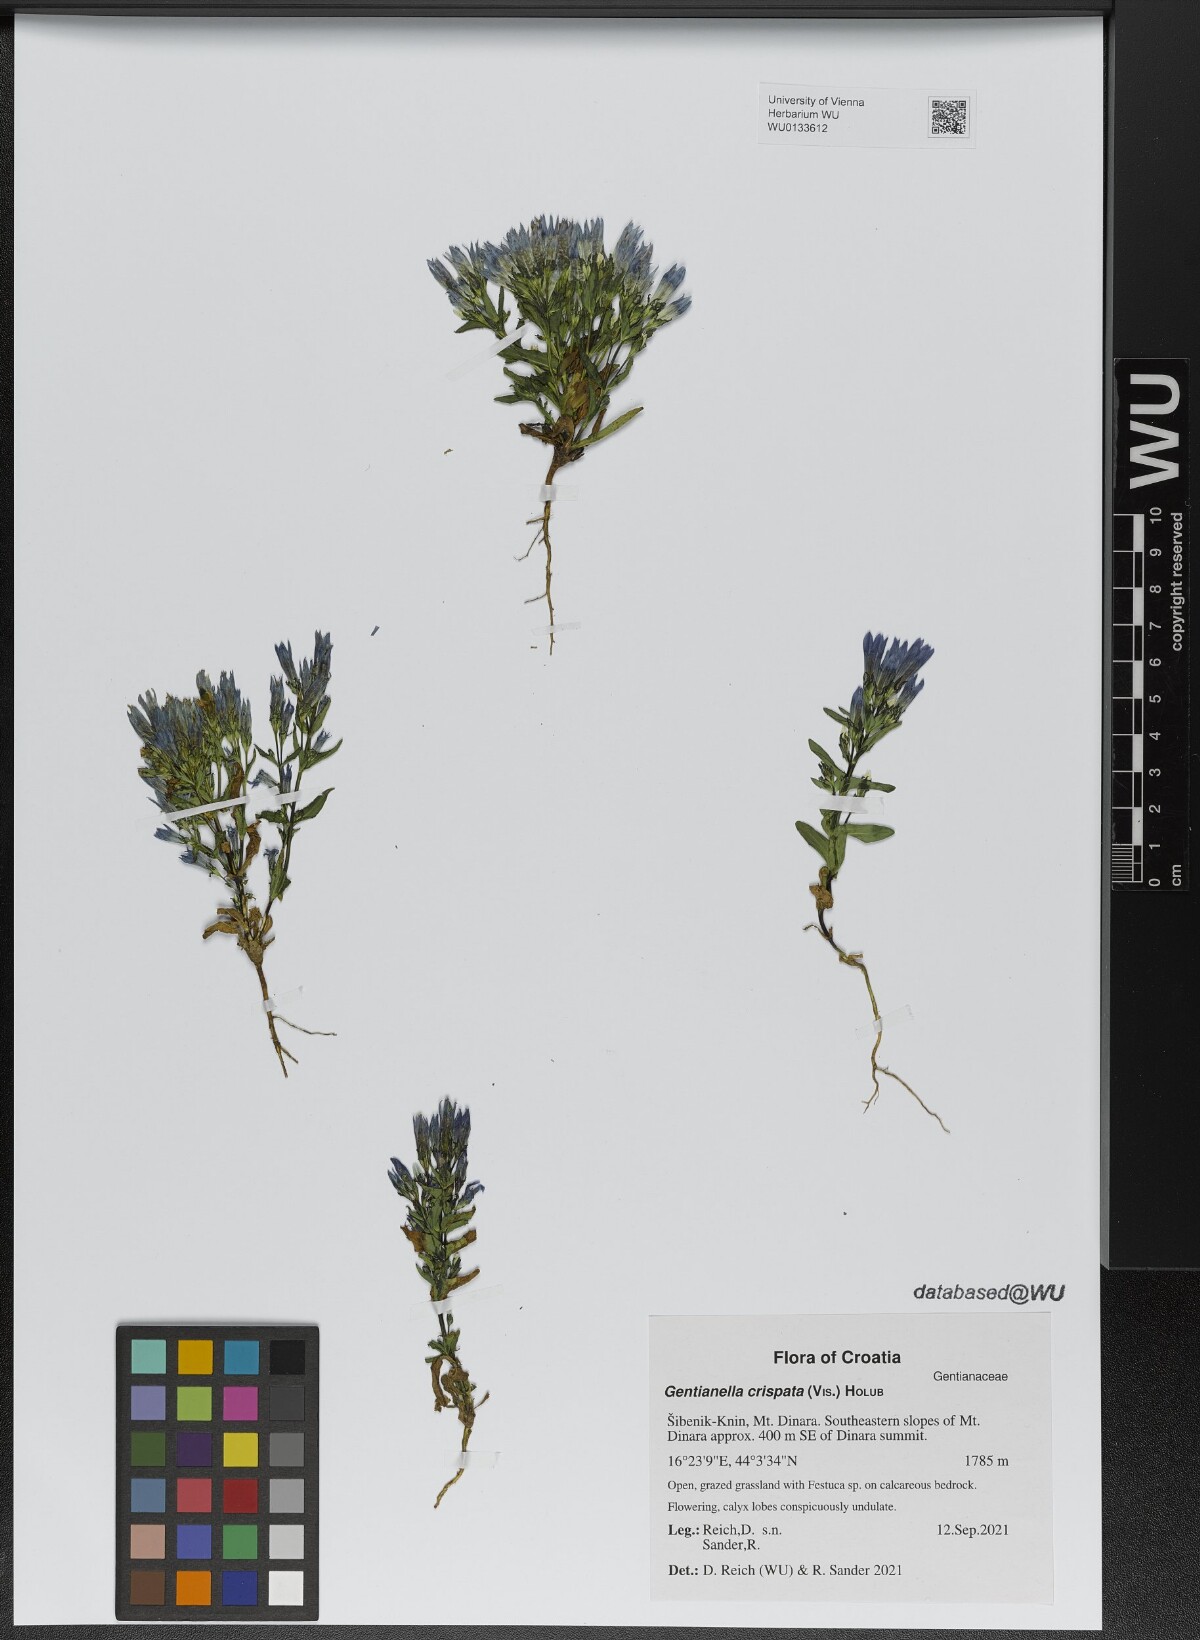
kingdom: Plantae
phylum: Tracheophyta
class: Magnoliopsida
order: Gentianales
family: Gentianaceae
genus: Gentianella
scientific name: Gentianella crispata
